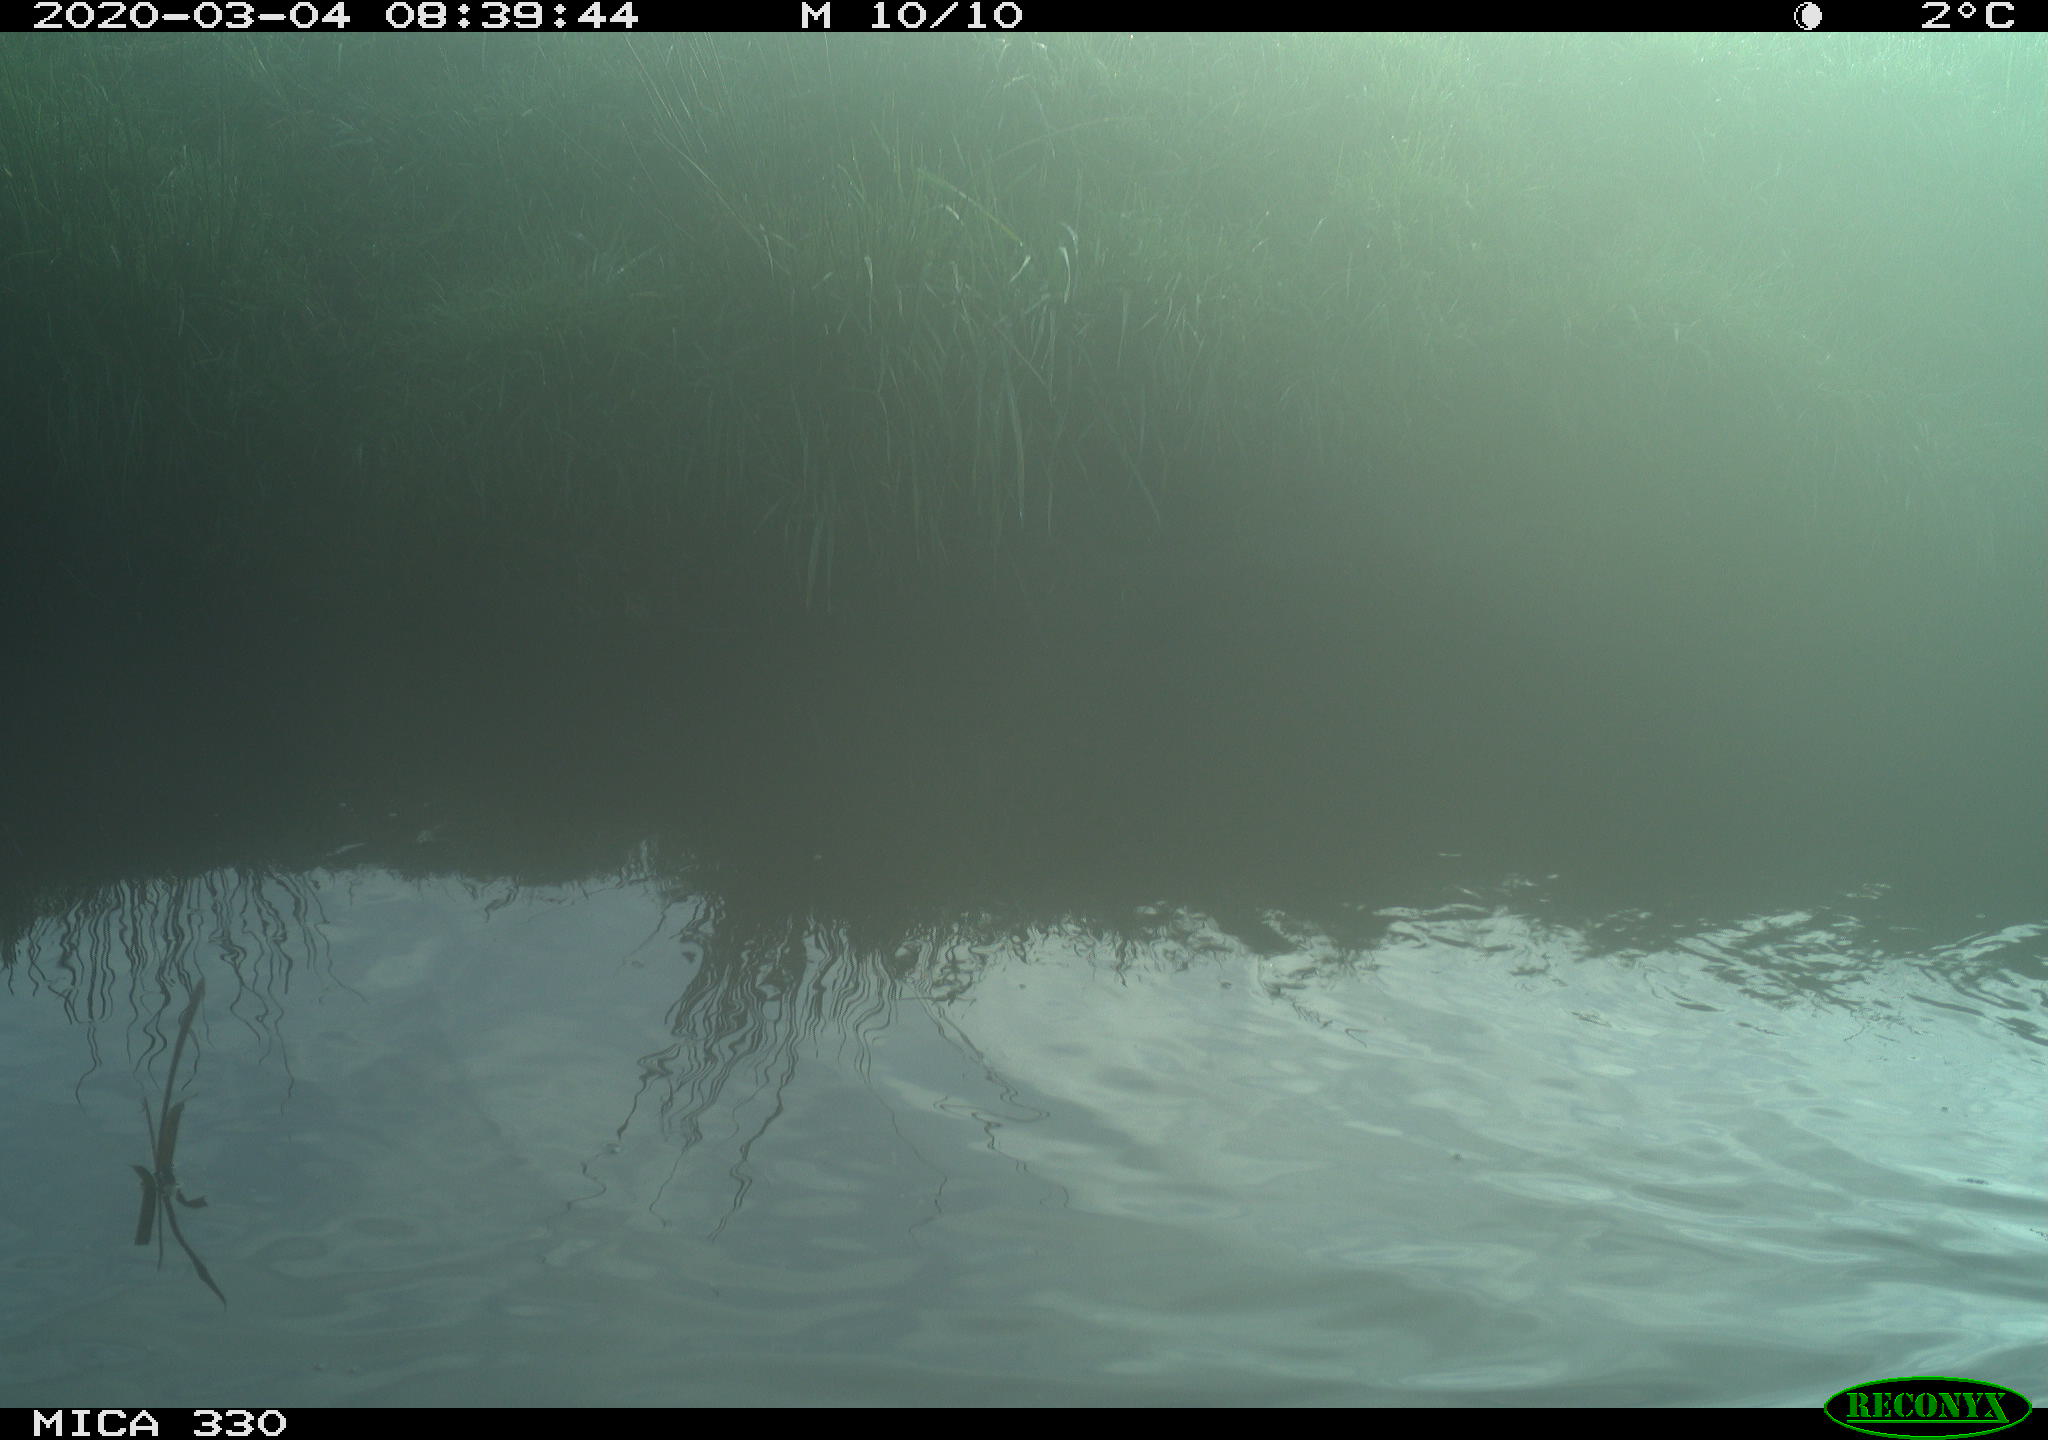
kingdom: Animalia
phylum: Chordata
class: Aves
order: Anseriformes
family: Anatidae
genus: Anas
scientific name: Anas platyrhynchos
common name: Mallard
